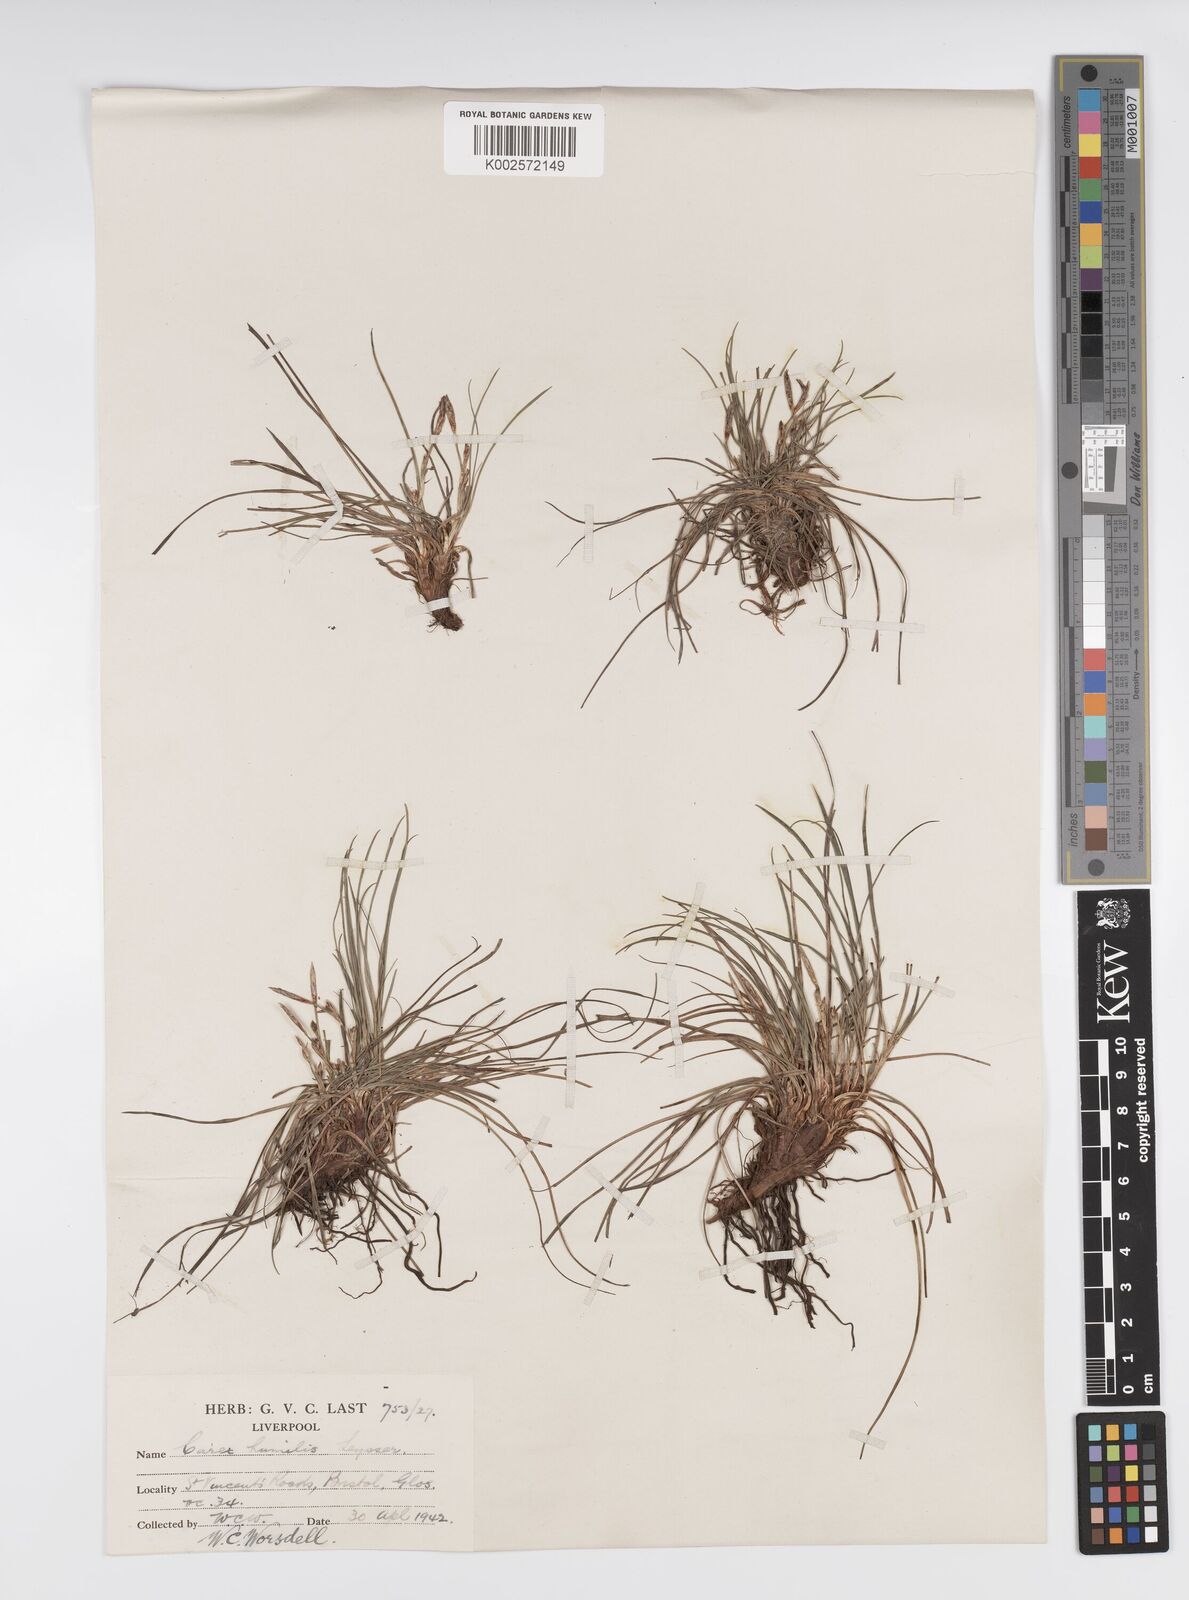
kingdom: Plantae
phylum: Tracheophyta
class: Liliopsida
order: Poales
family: Cyperaceae
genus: Carex
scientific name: Carex humilis
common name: Dwarf sedge
